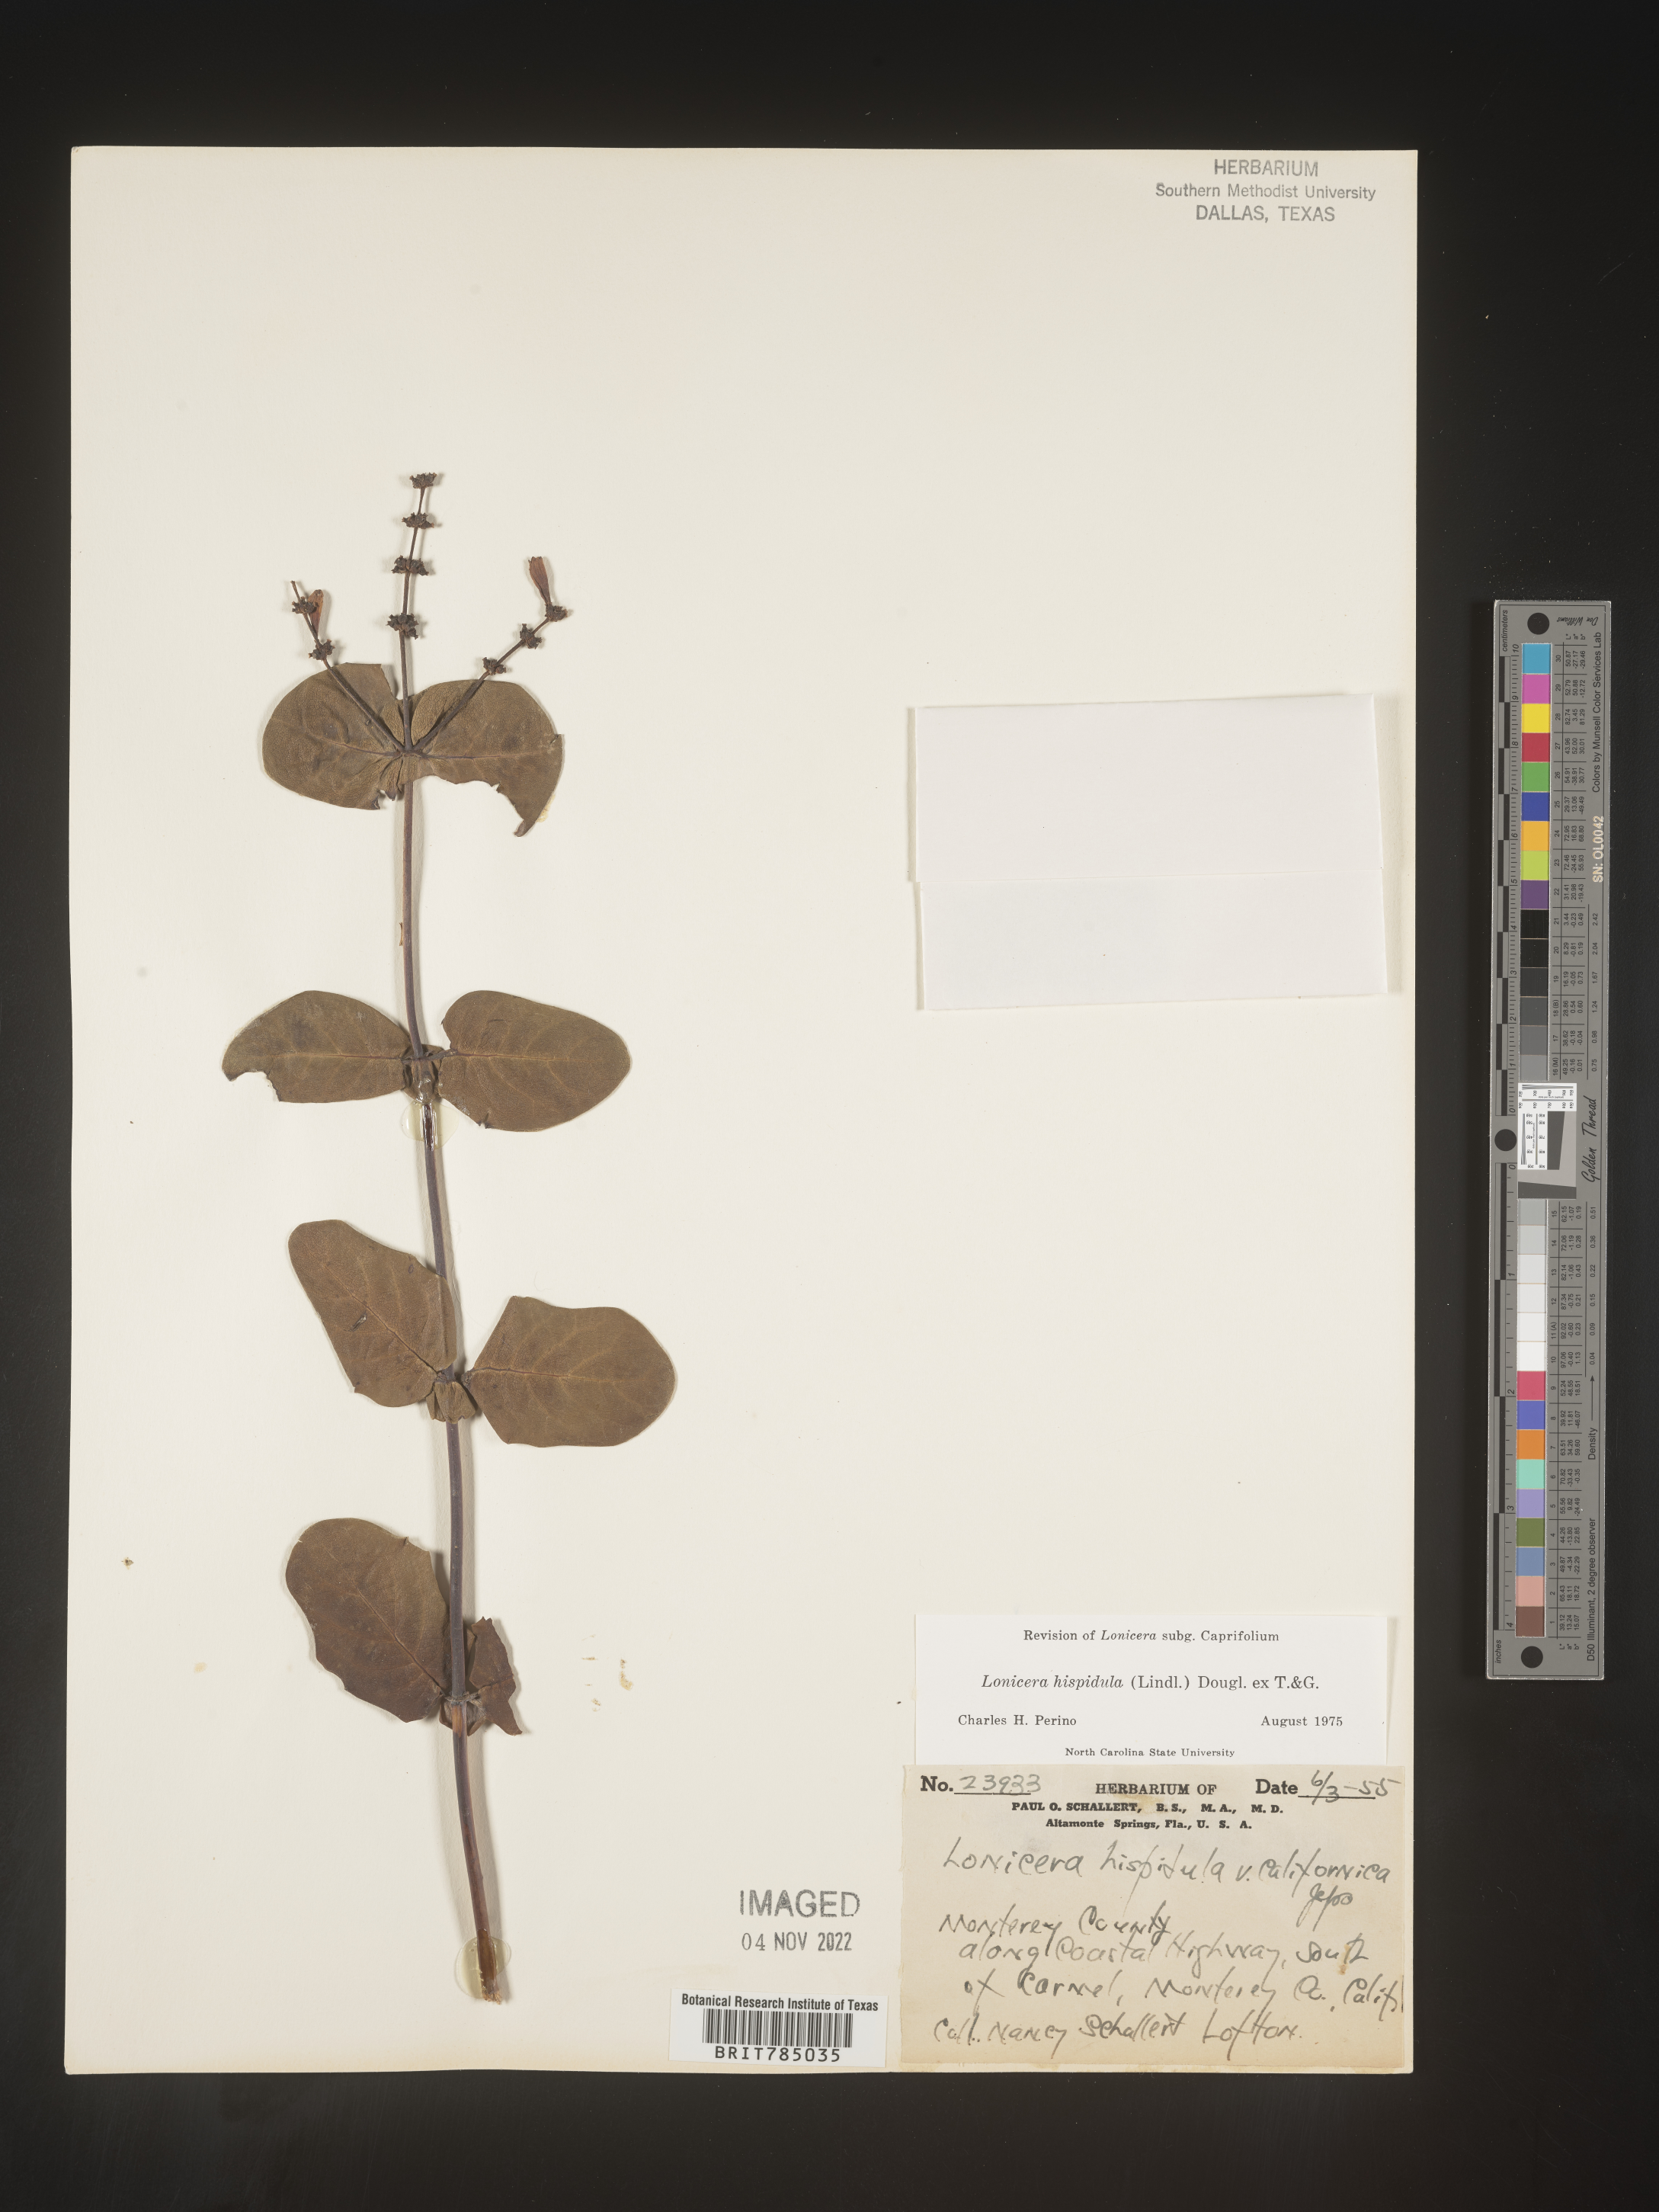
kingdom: Plantae
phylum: Tracheophyta
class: Magnoliopsida
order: Dipsacales
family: Caprifoliaceae
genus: Lonicera
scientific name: Lonicera
